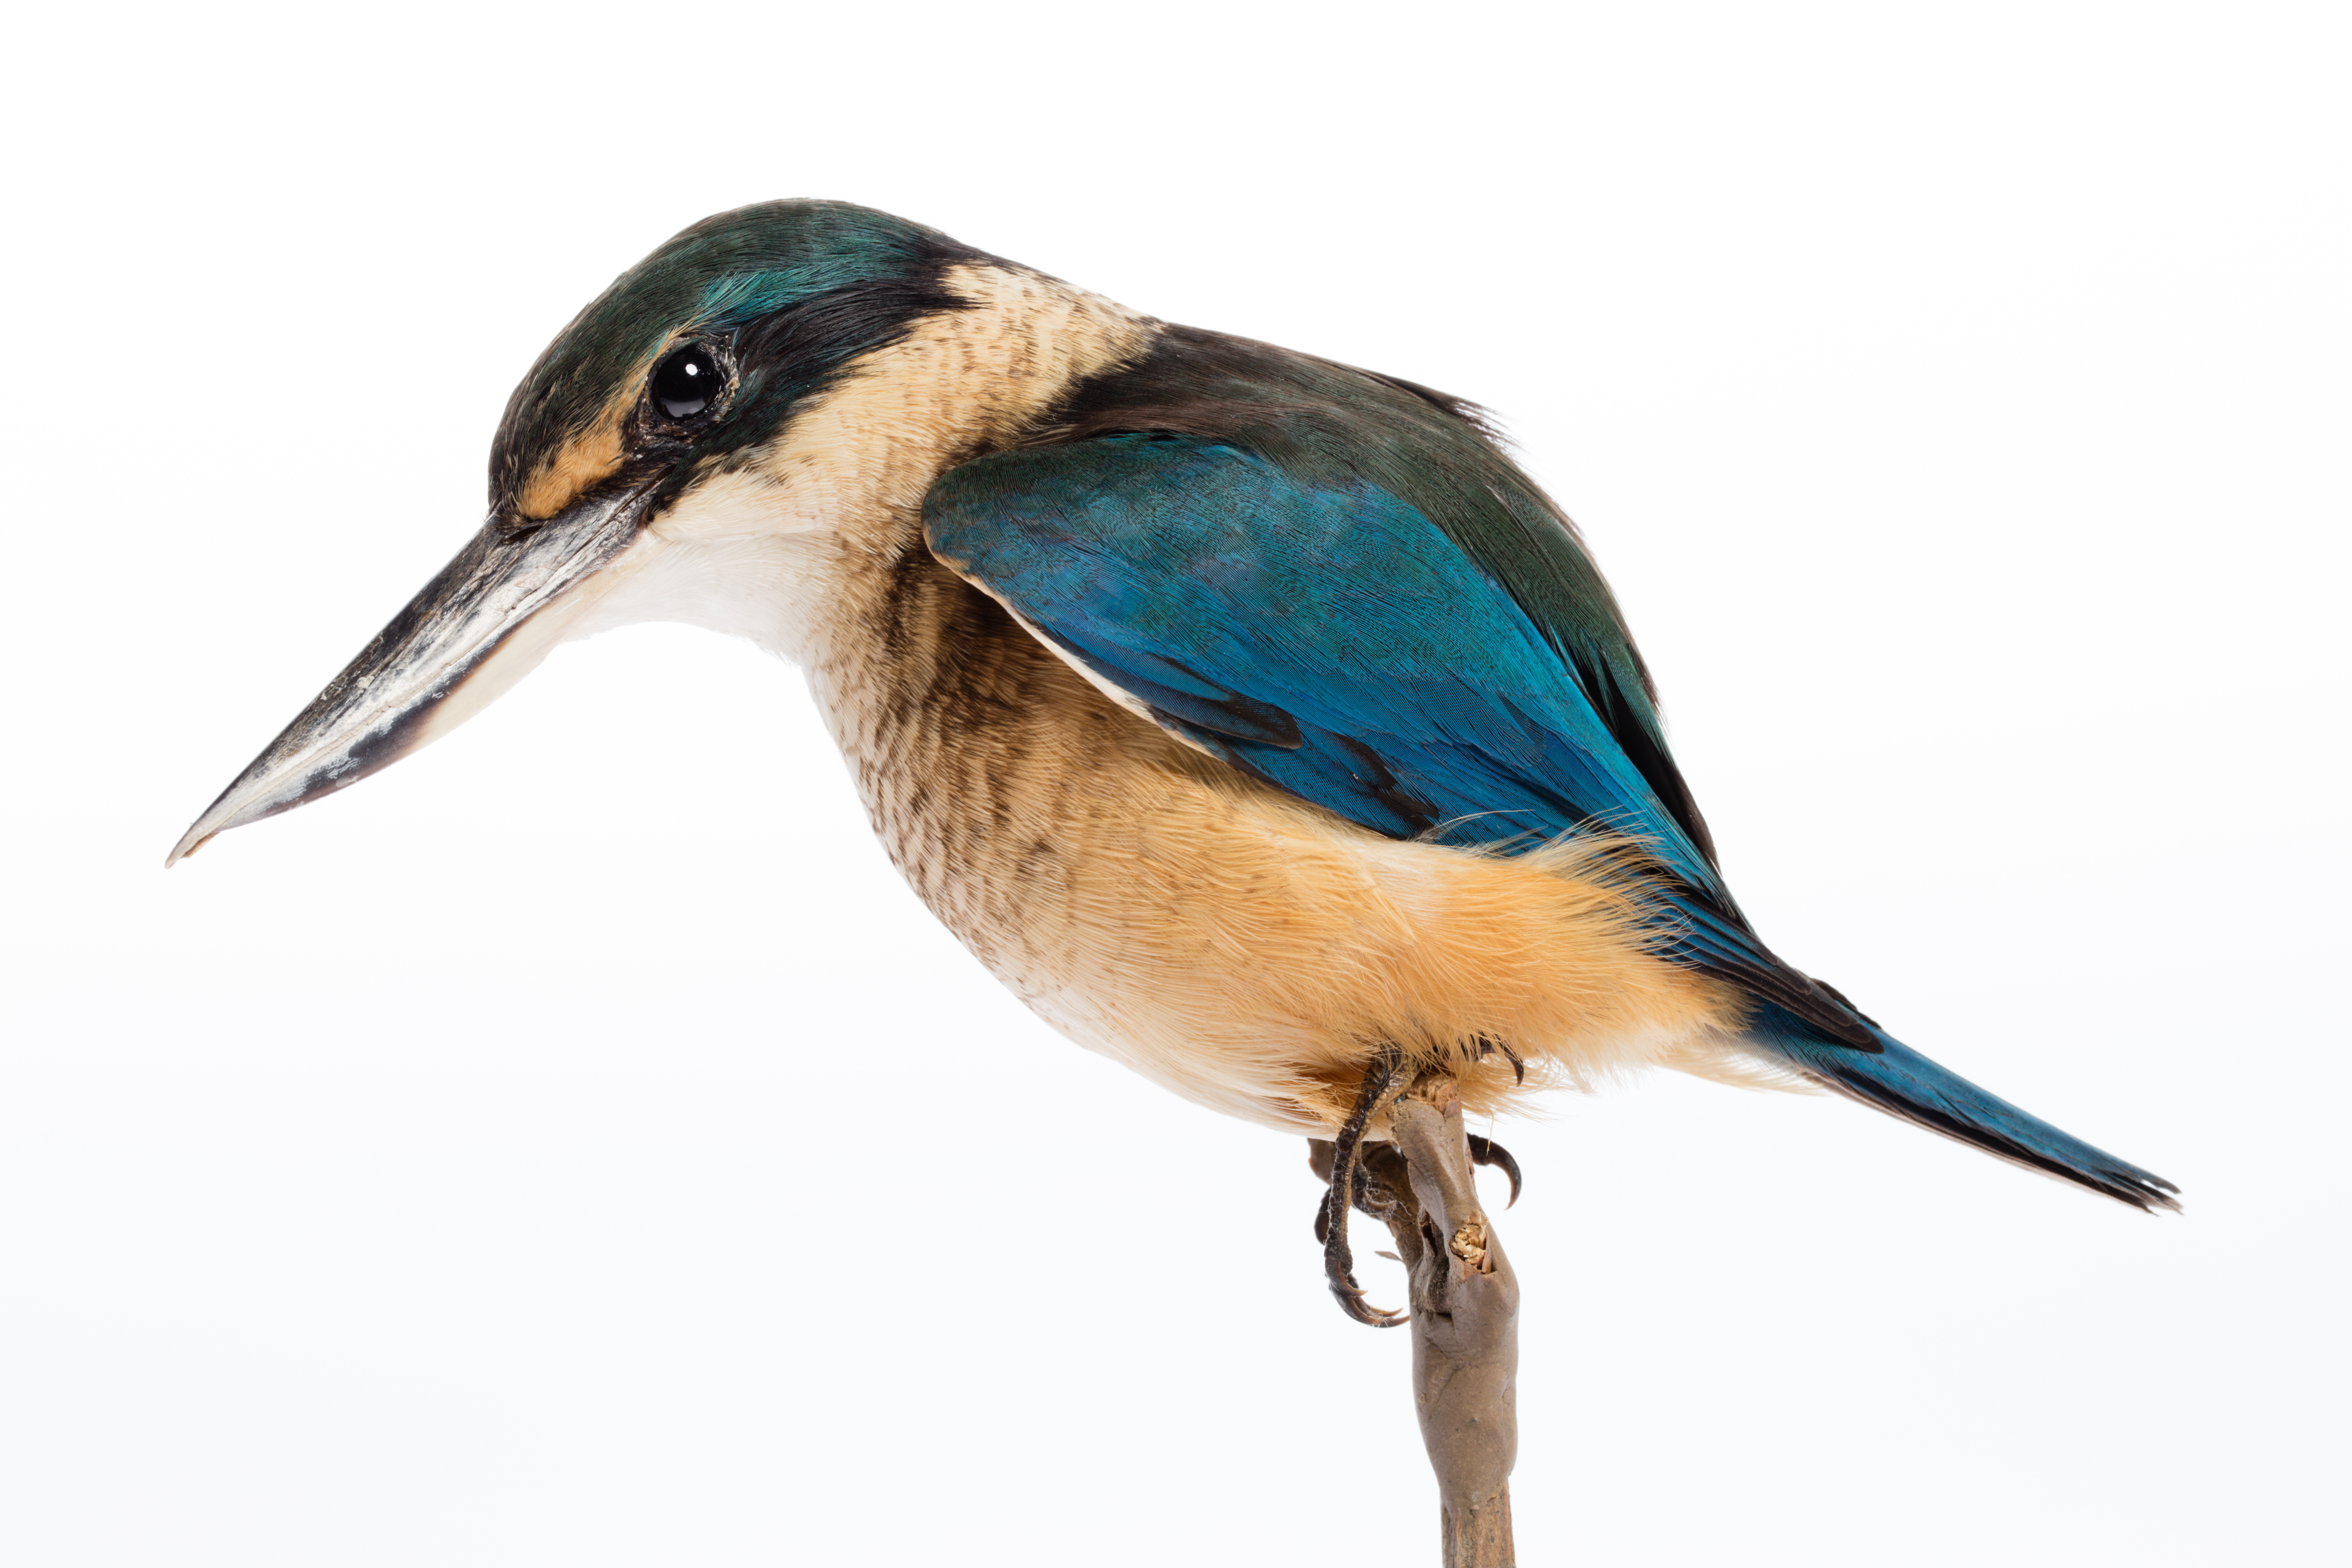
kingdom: Animalia
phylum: Chordata
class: Aves
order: Coraciiformes
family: Alcedinidae
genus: Todiramphus
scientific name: Todiramphus sanctus
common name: Sacred kingfisher
